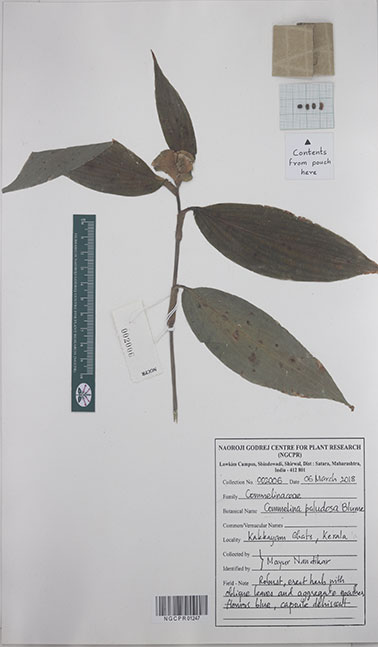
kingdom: Plantae
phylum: Tracheophyta
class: Liliopsida
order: Commelinales
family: Commelinaceae
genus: Commelina
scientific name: Commelina paludosa
